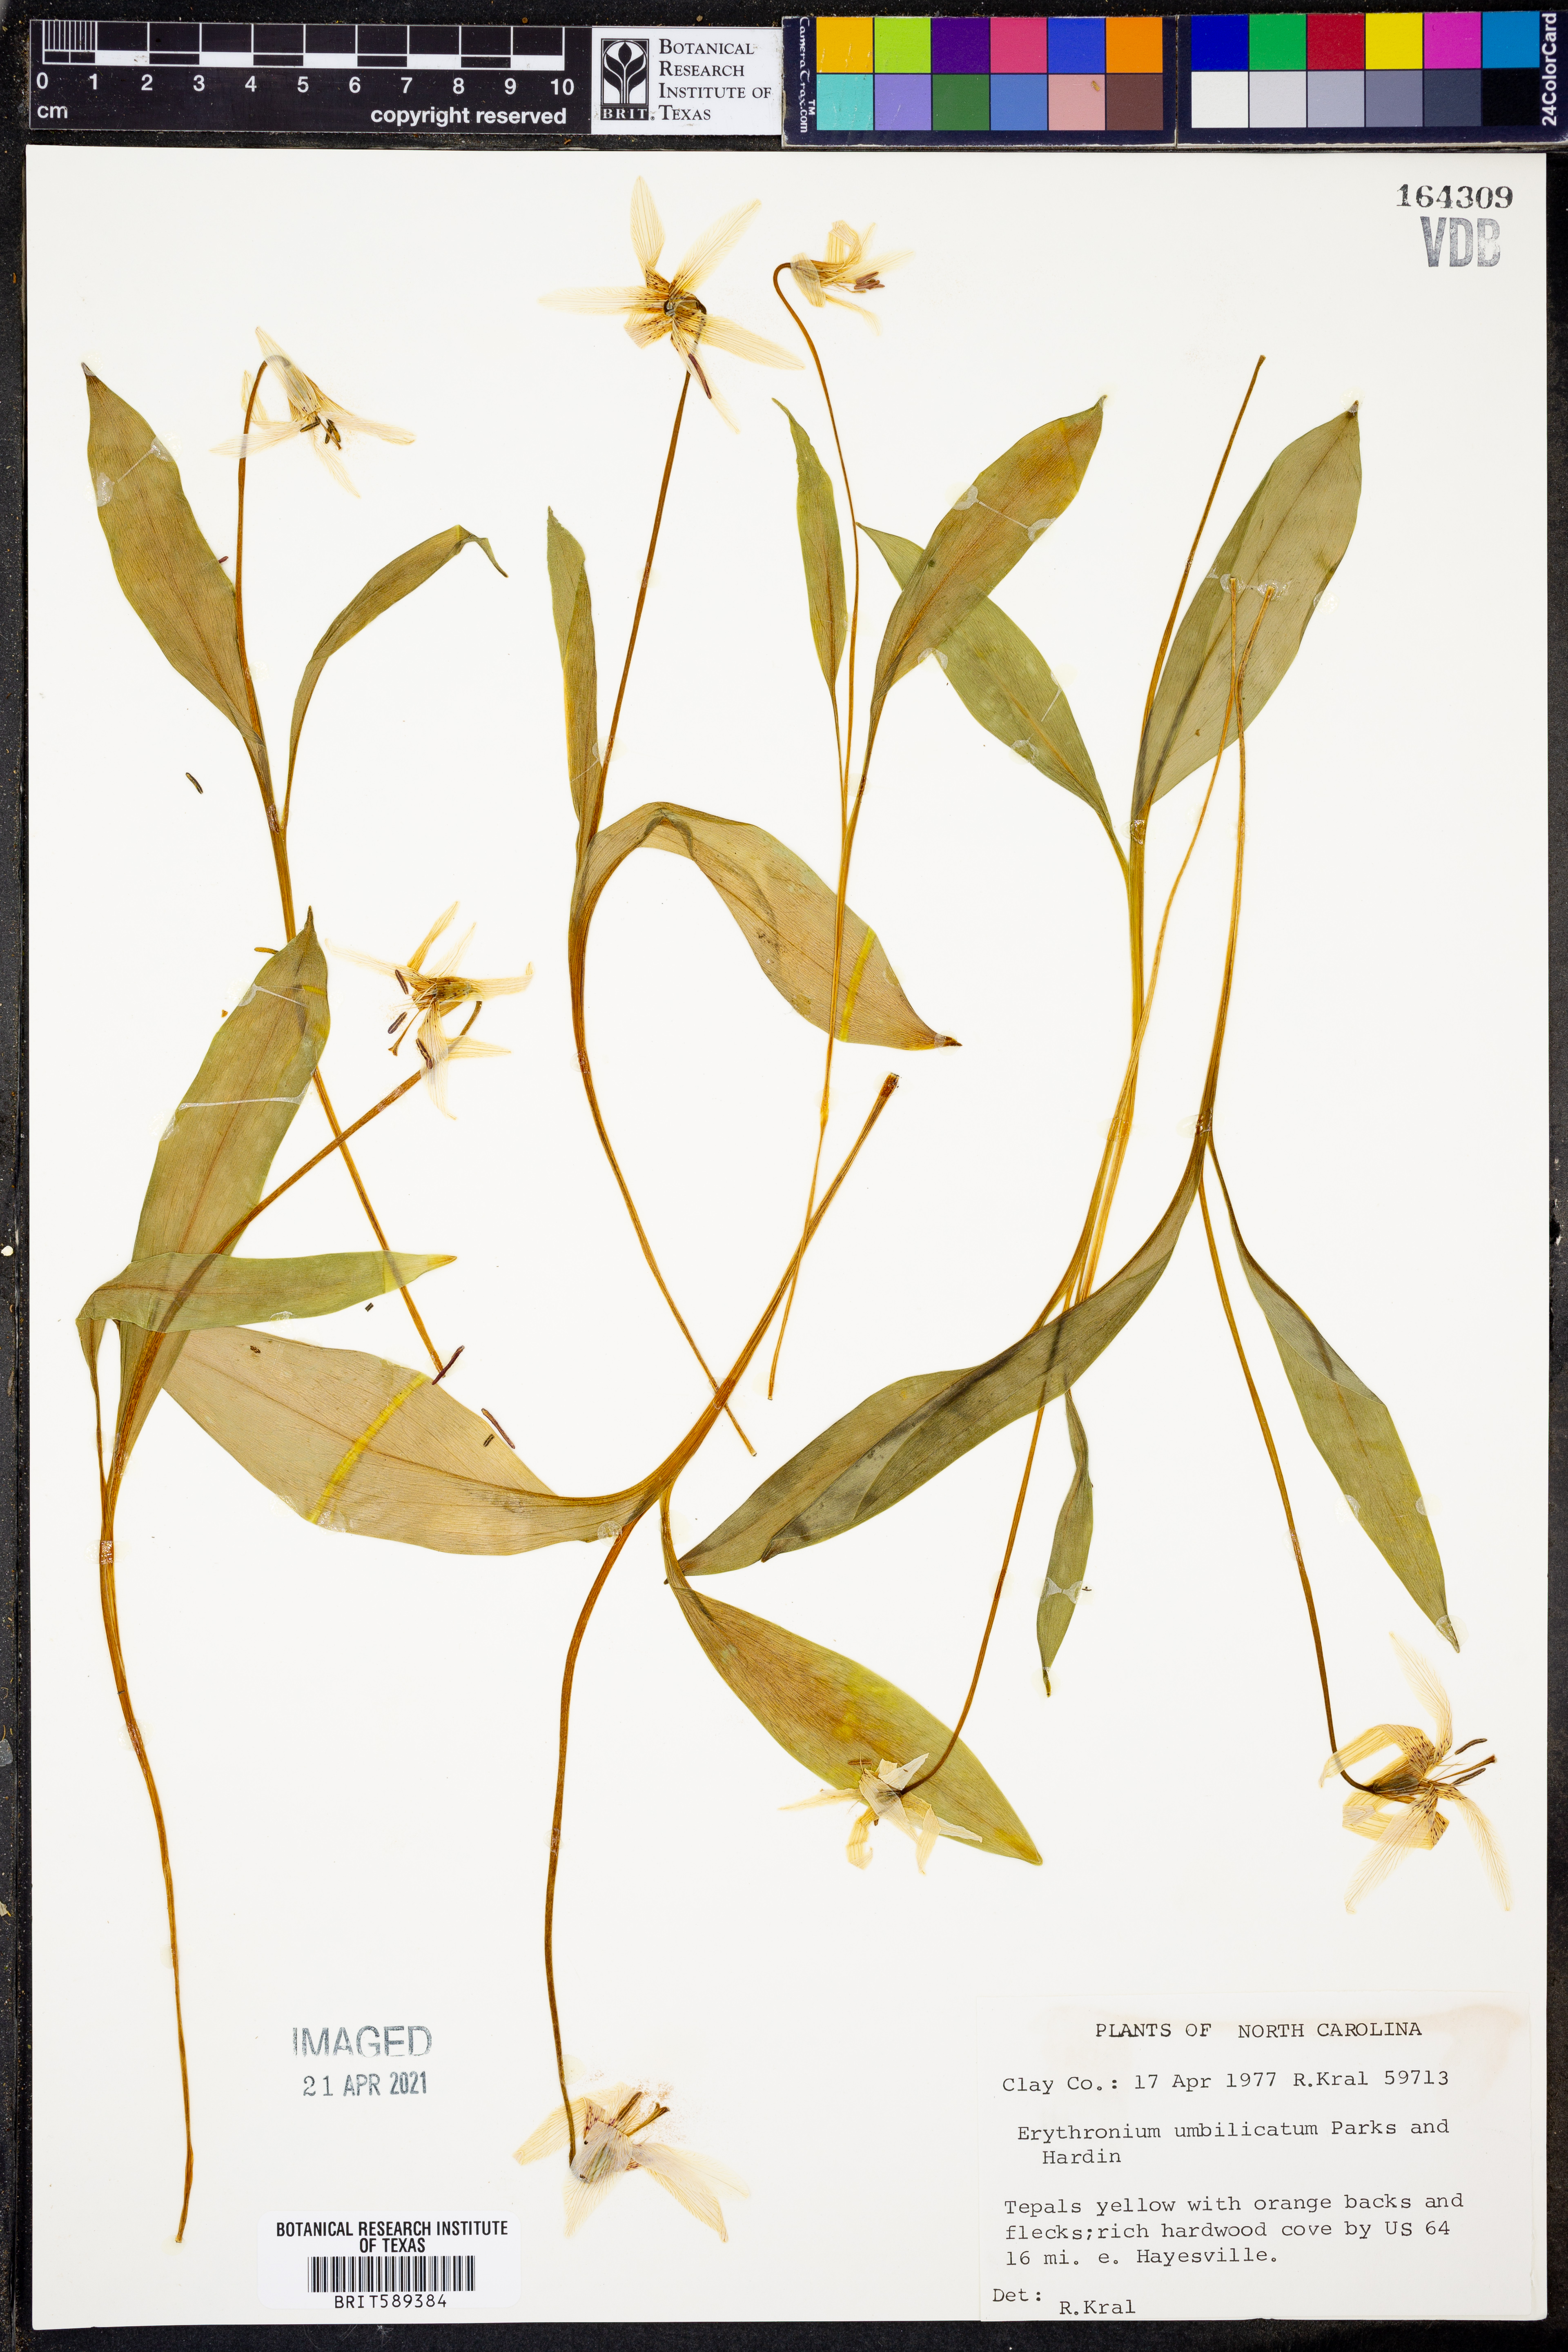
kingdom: Plantae
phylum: Tracheophyta
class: Liliopsida
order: Liliales
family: Liliaceae
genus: Erythronium
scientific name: Erythronium umbilicatum
